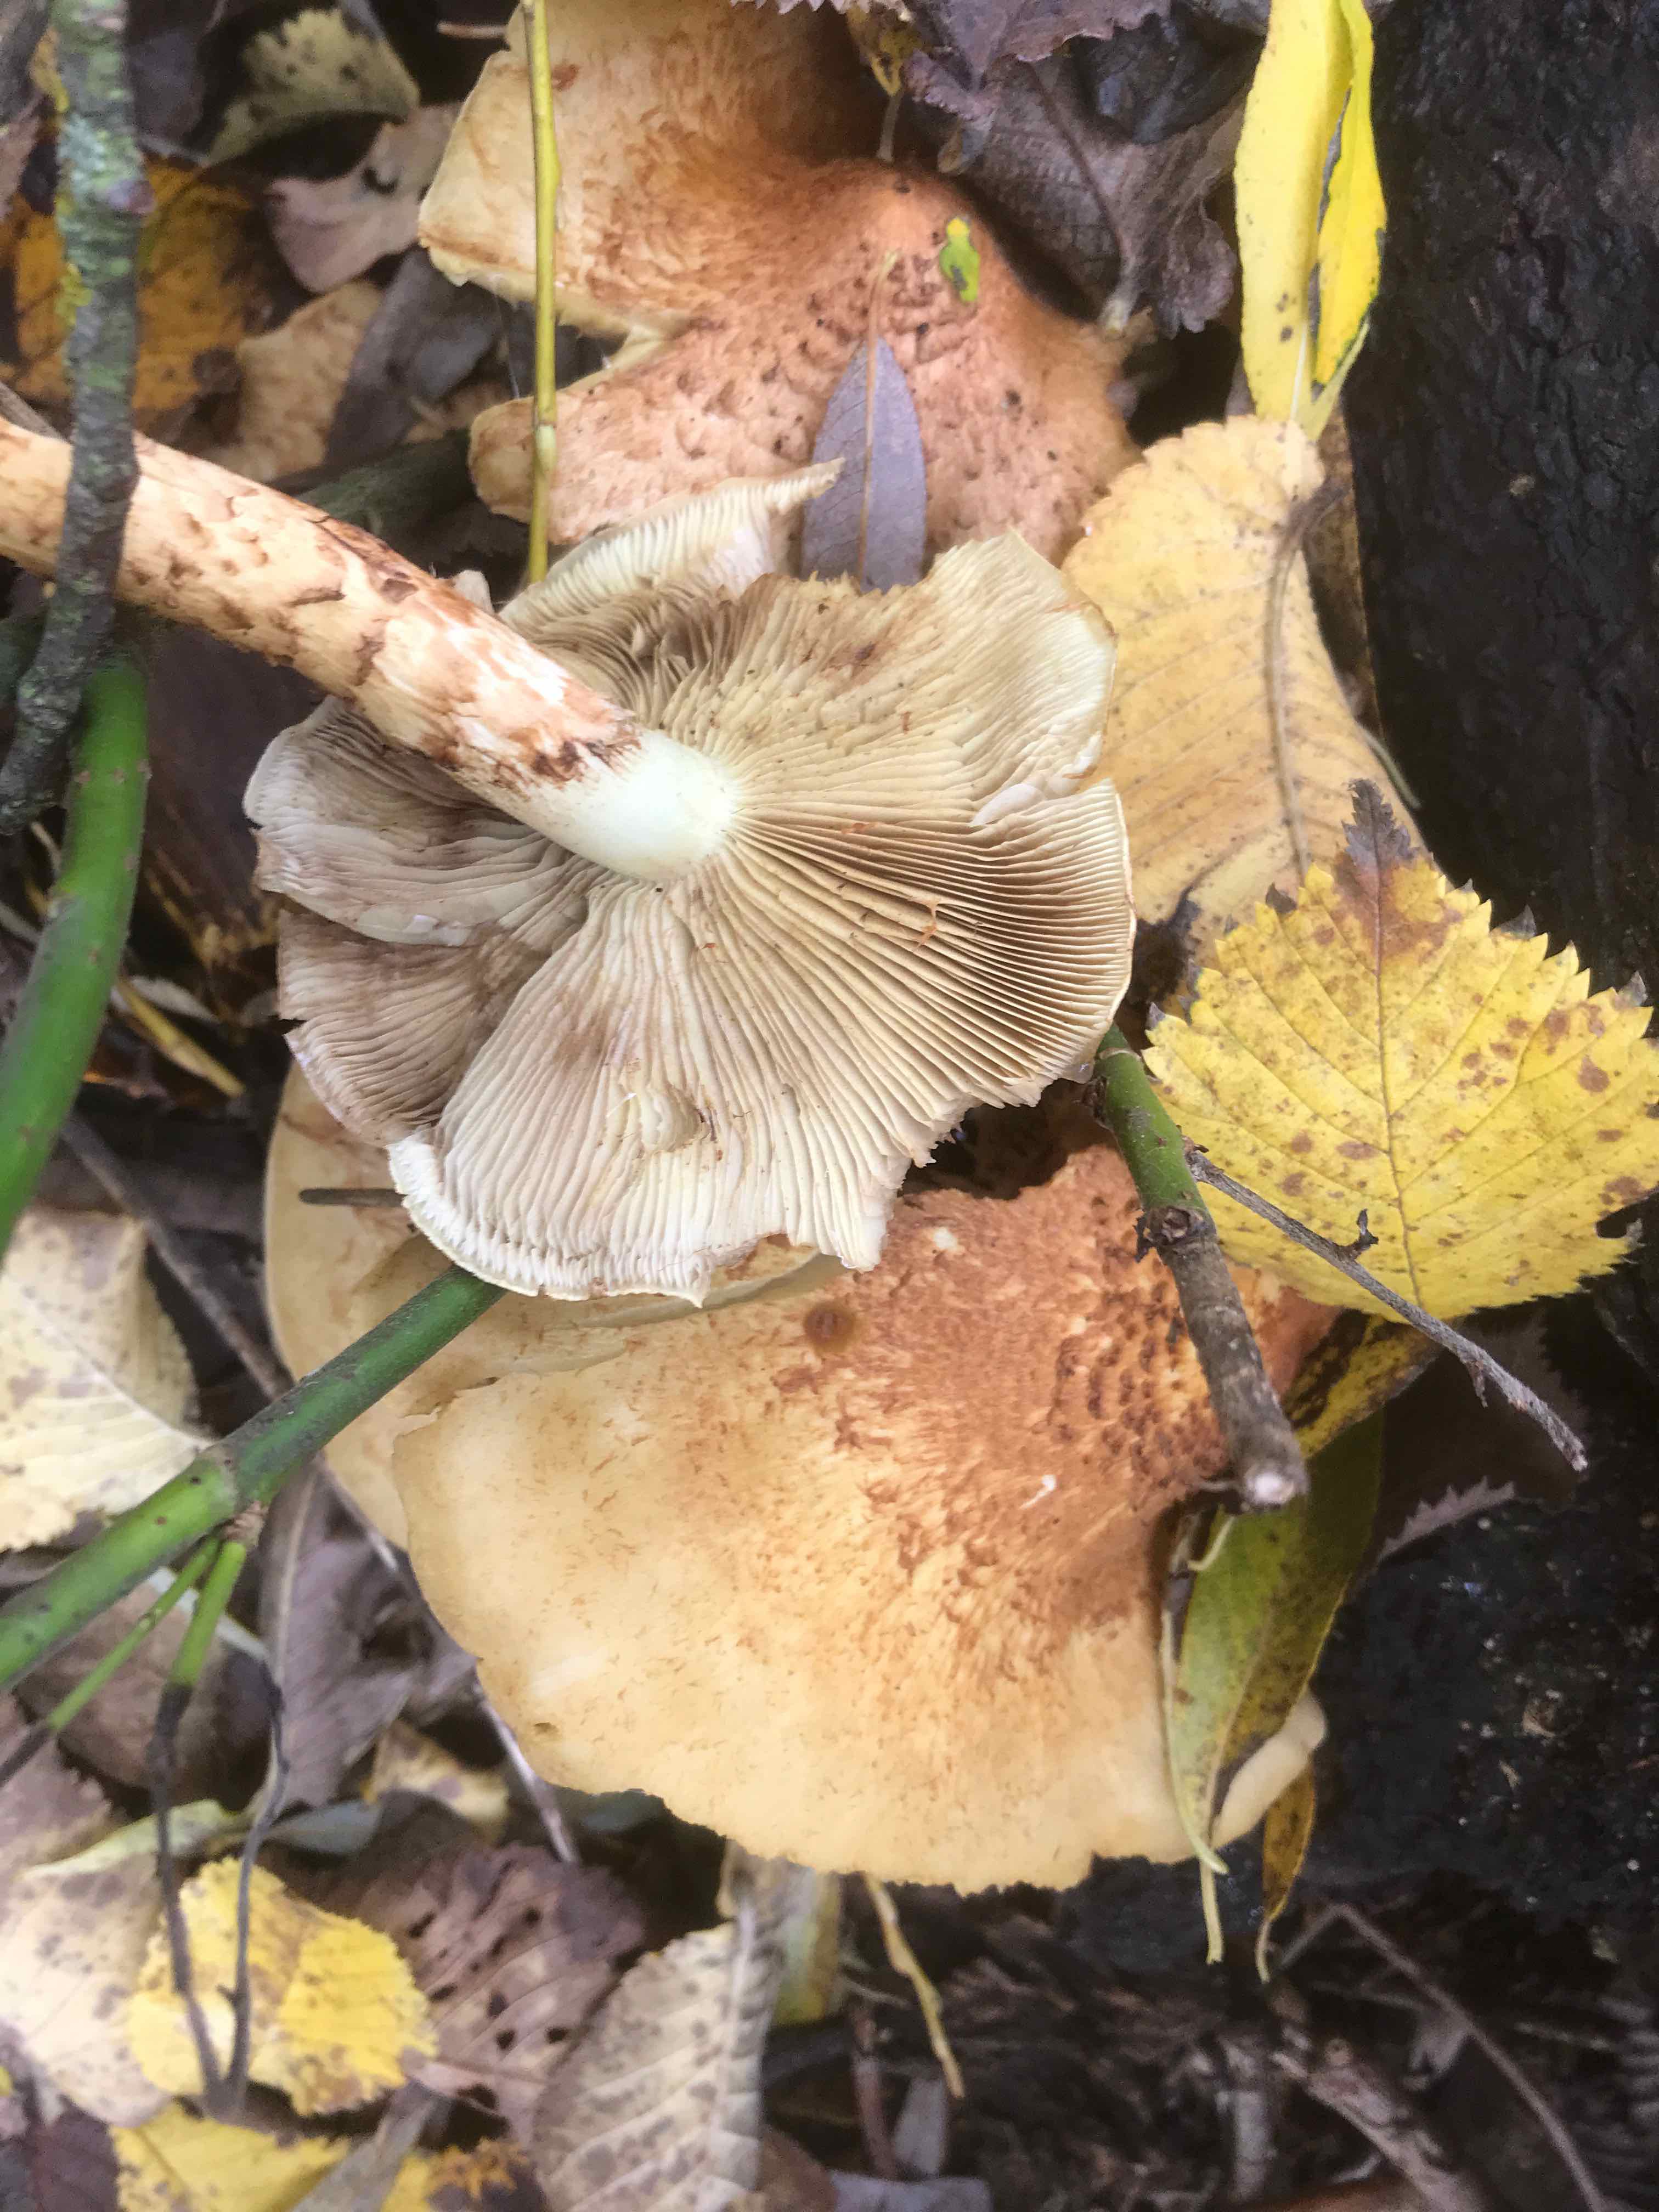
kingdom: Fungi
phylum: Basidiomycota
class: Agaricomycetes
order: Agaricales
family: Strophariaceae
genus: Pholiota
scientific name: Pholiota squarrosa
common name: krumskællet skælhat
